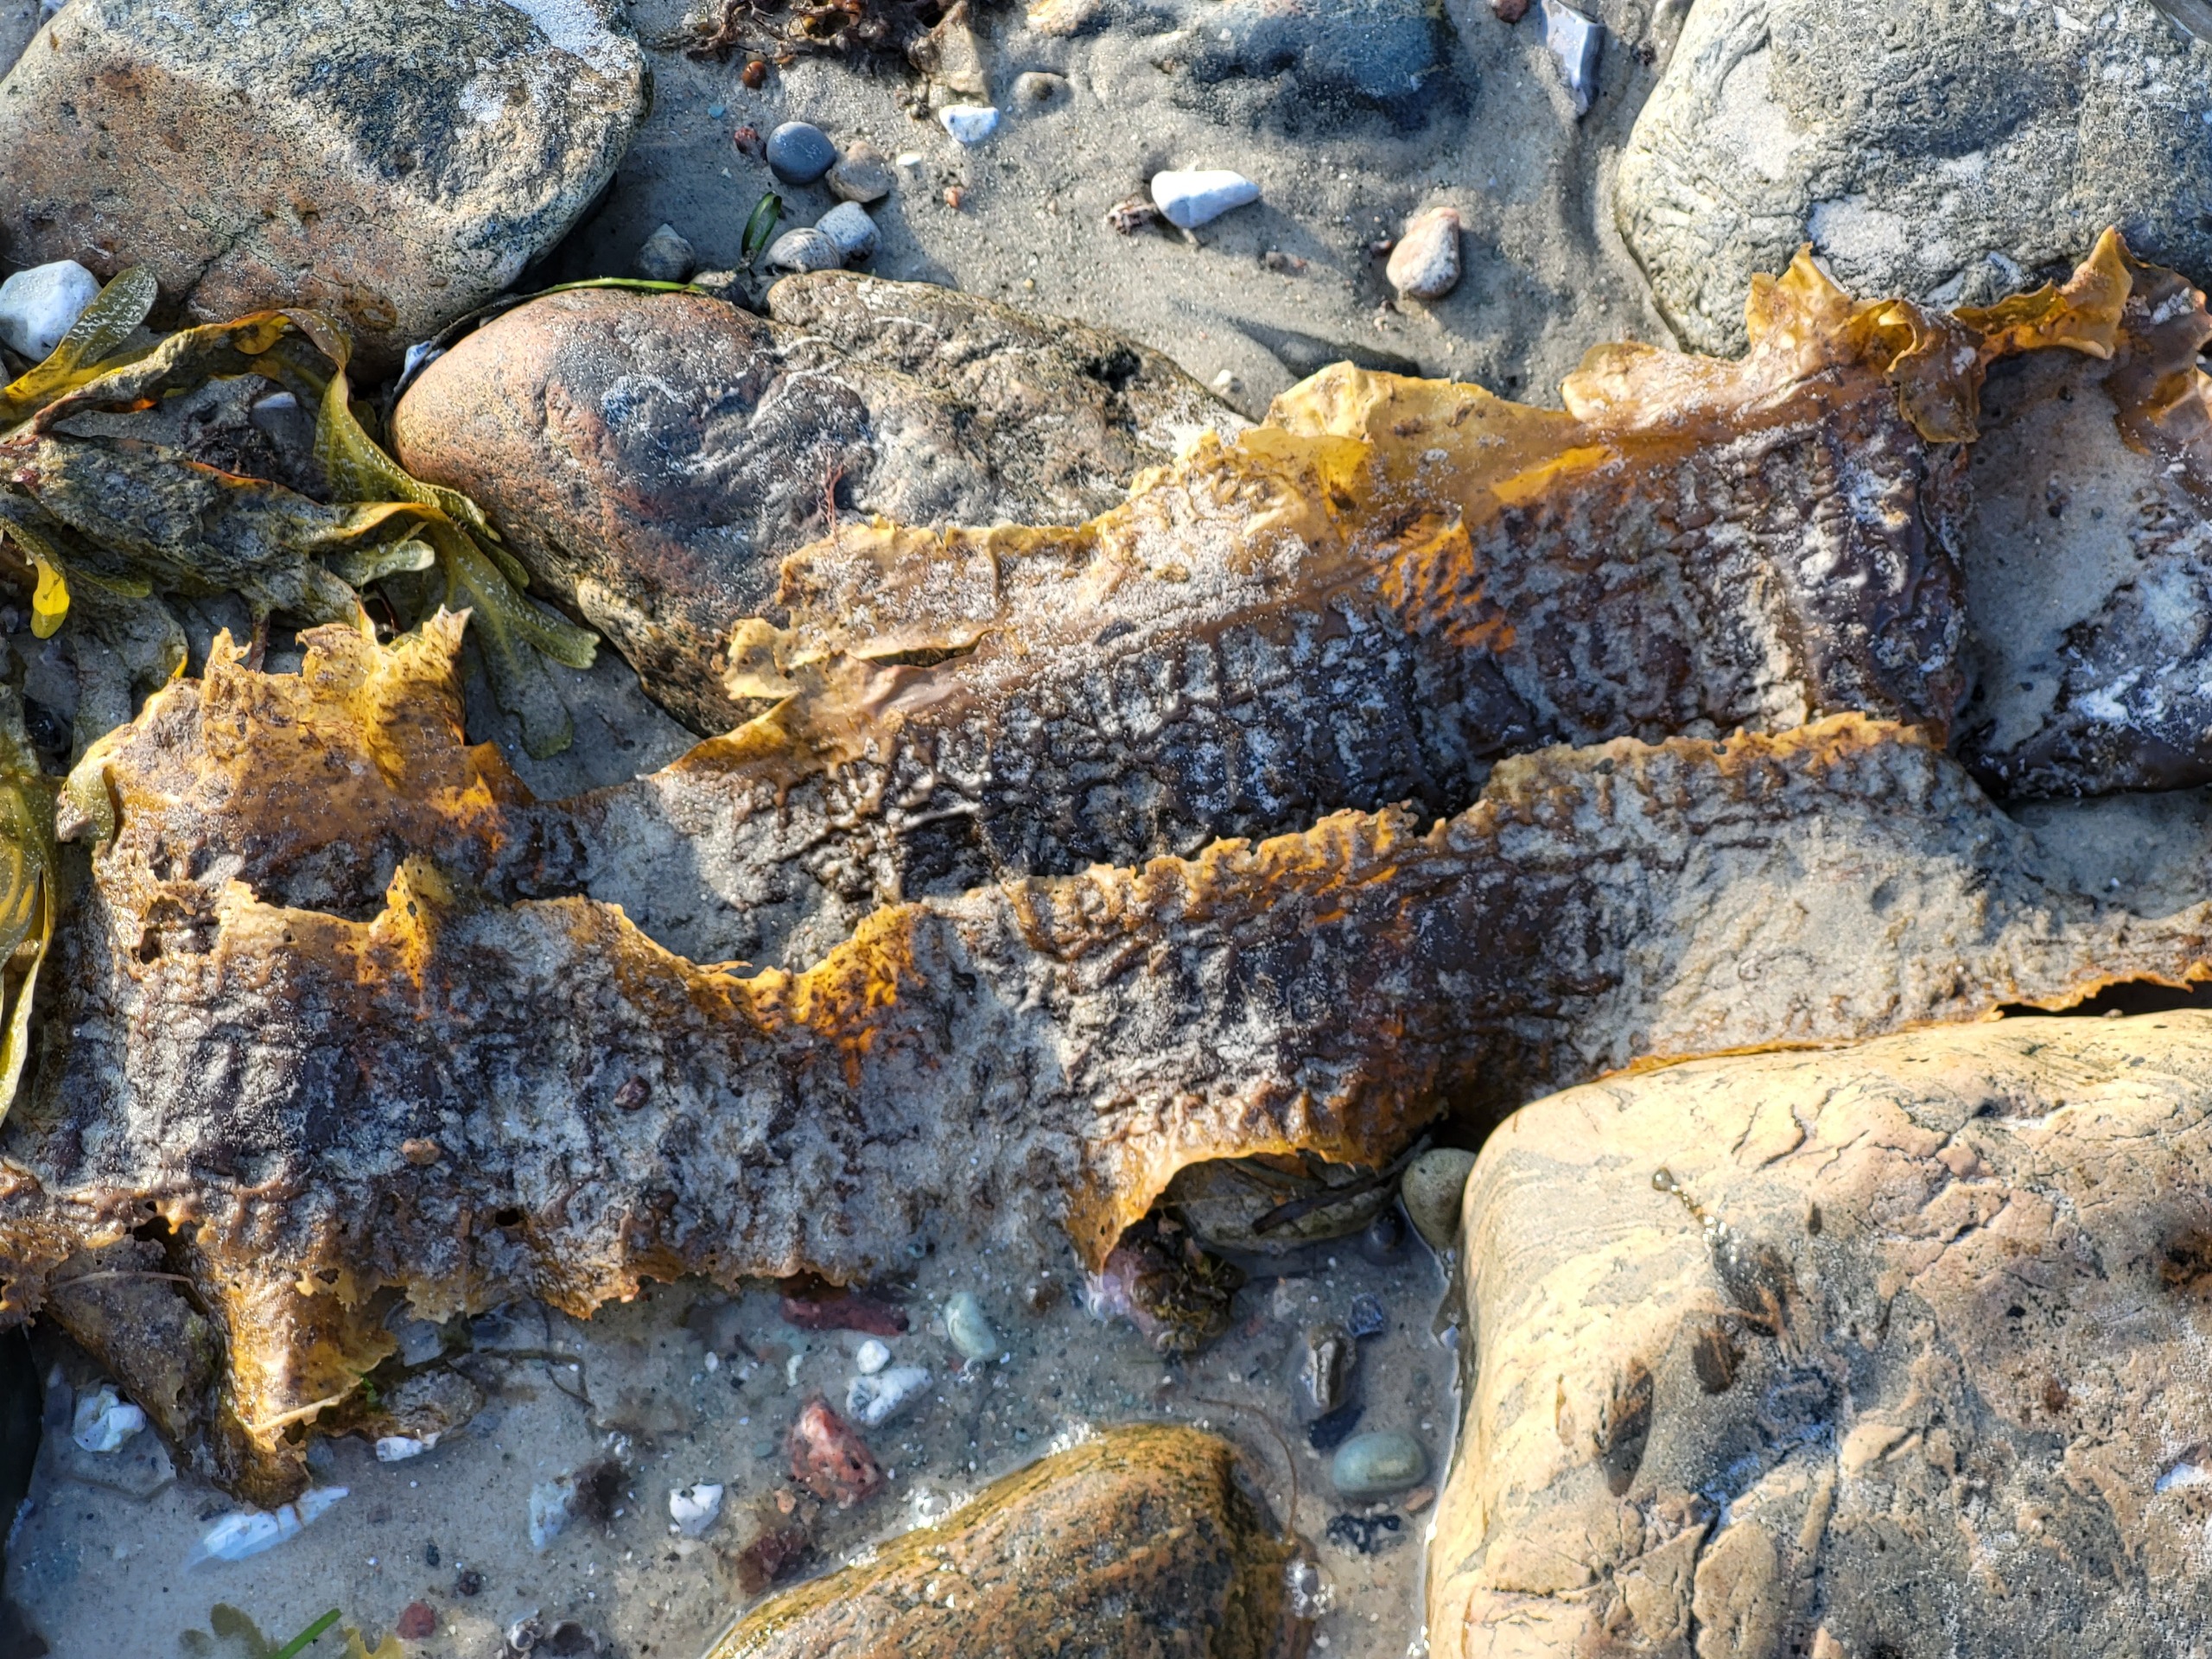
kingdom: Chromista
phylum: Ochrophyta
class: Phaeophyceae
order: Laminariales
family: Laminariaceae
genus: Saccharina
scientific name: Saccharina latissima
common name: Sukkertang
